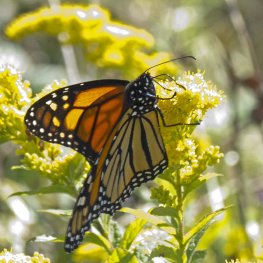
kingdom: Animalia
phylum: Arthropoda
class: Insecta
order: Lepidoptera
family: Nymphalidae
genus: Danaus
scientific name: Danaus plexippus
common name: Monarch
